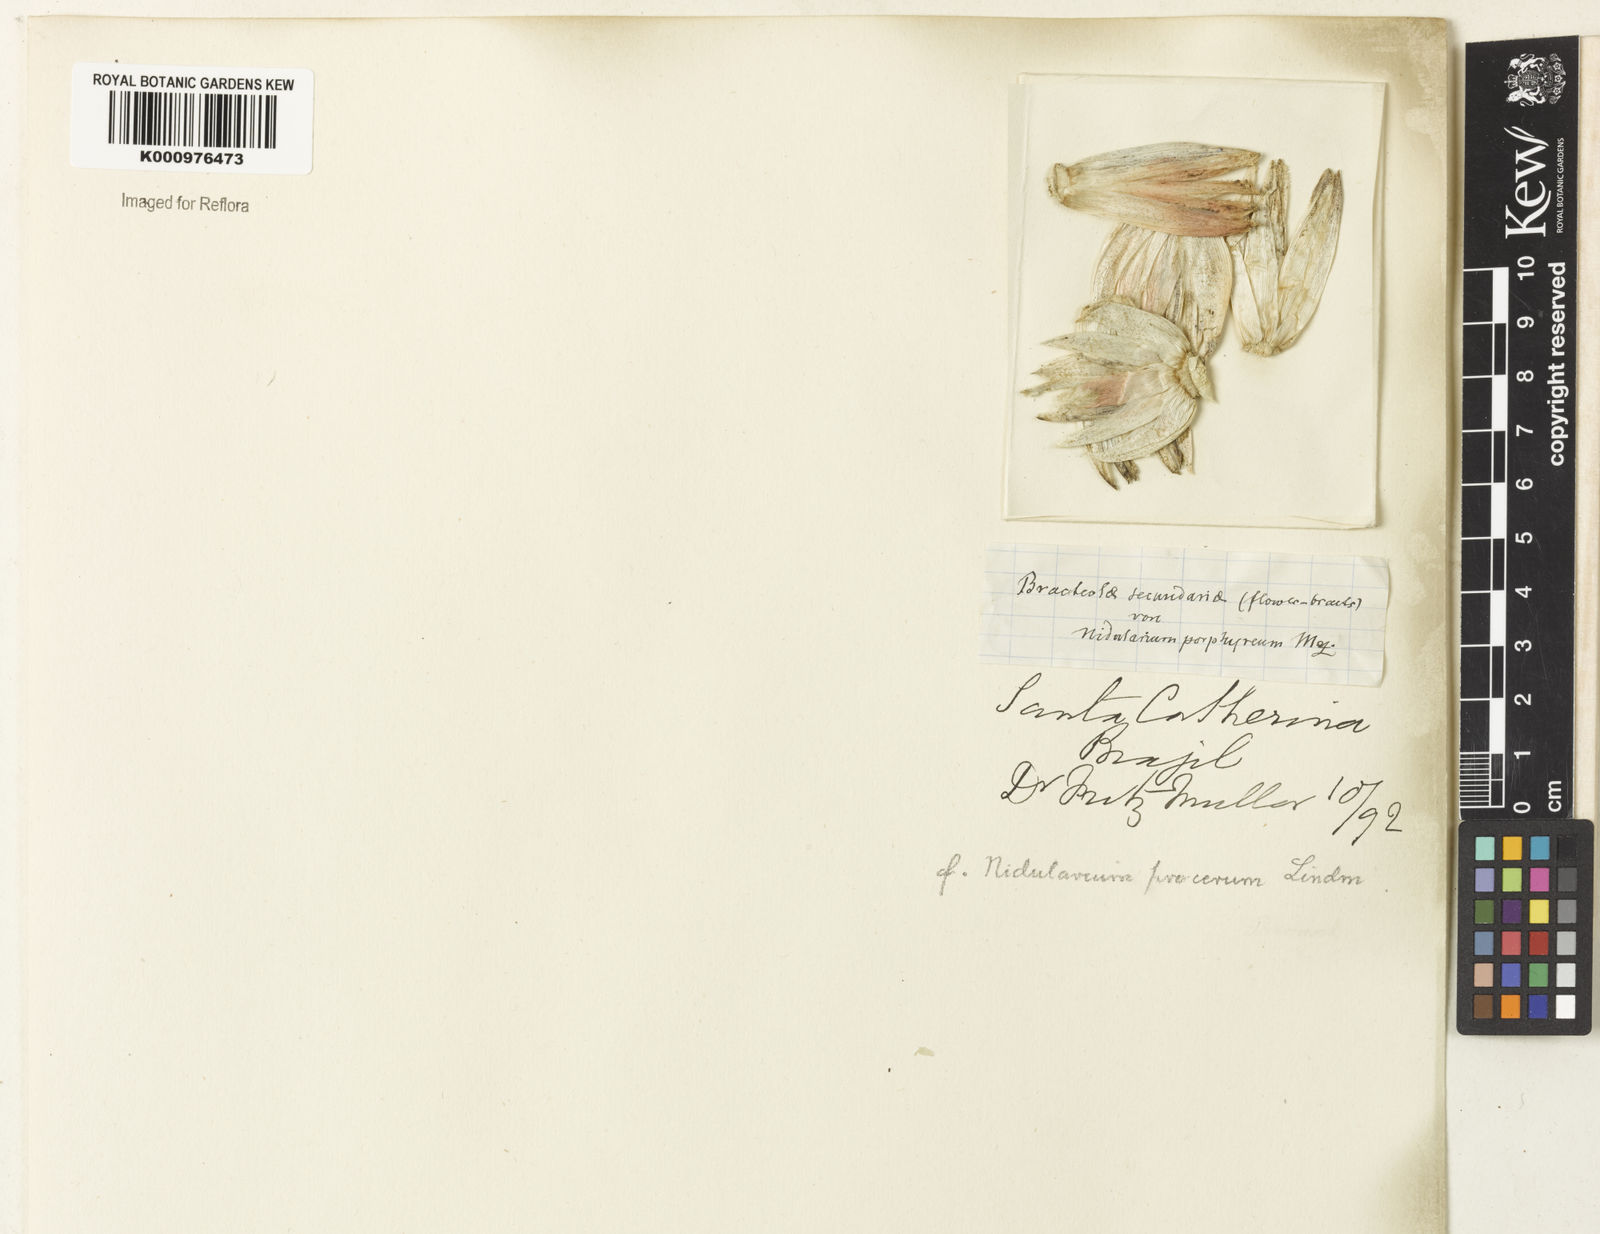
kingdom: Plantae
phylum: Tracheophyta
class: Liliopsida
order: Poales
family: Bromeliaceae
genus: Nidularium
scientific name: Nidularium procerum
